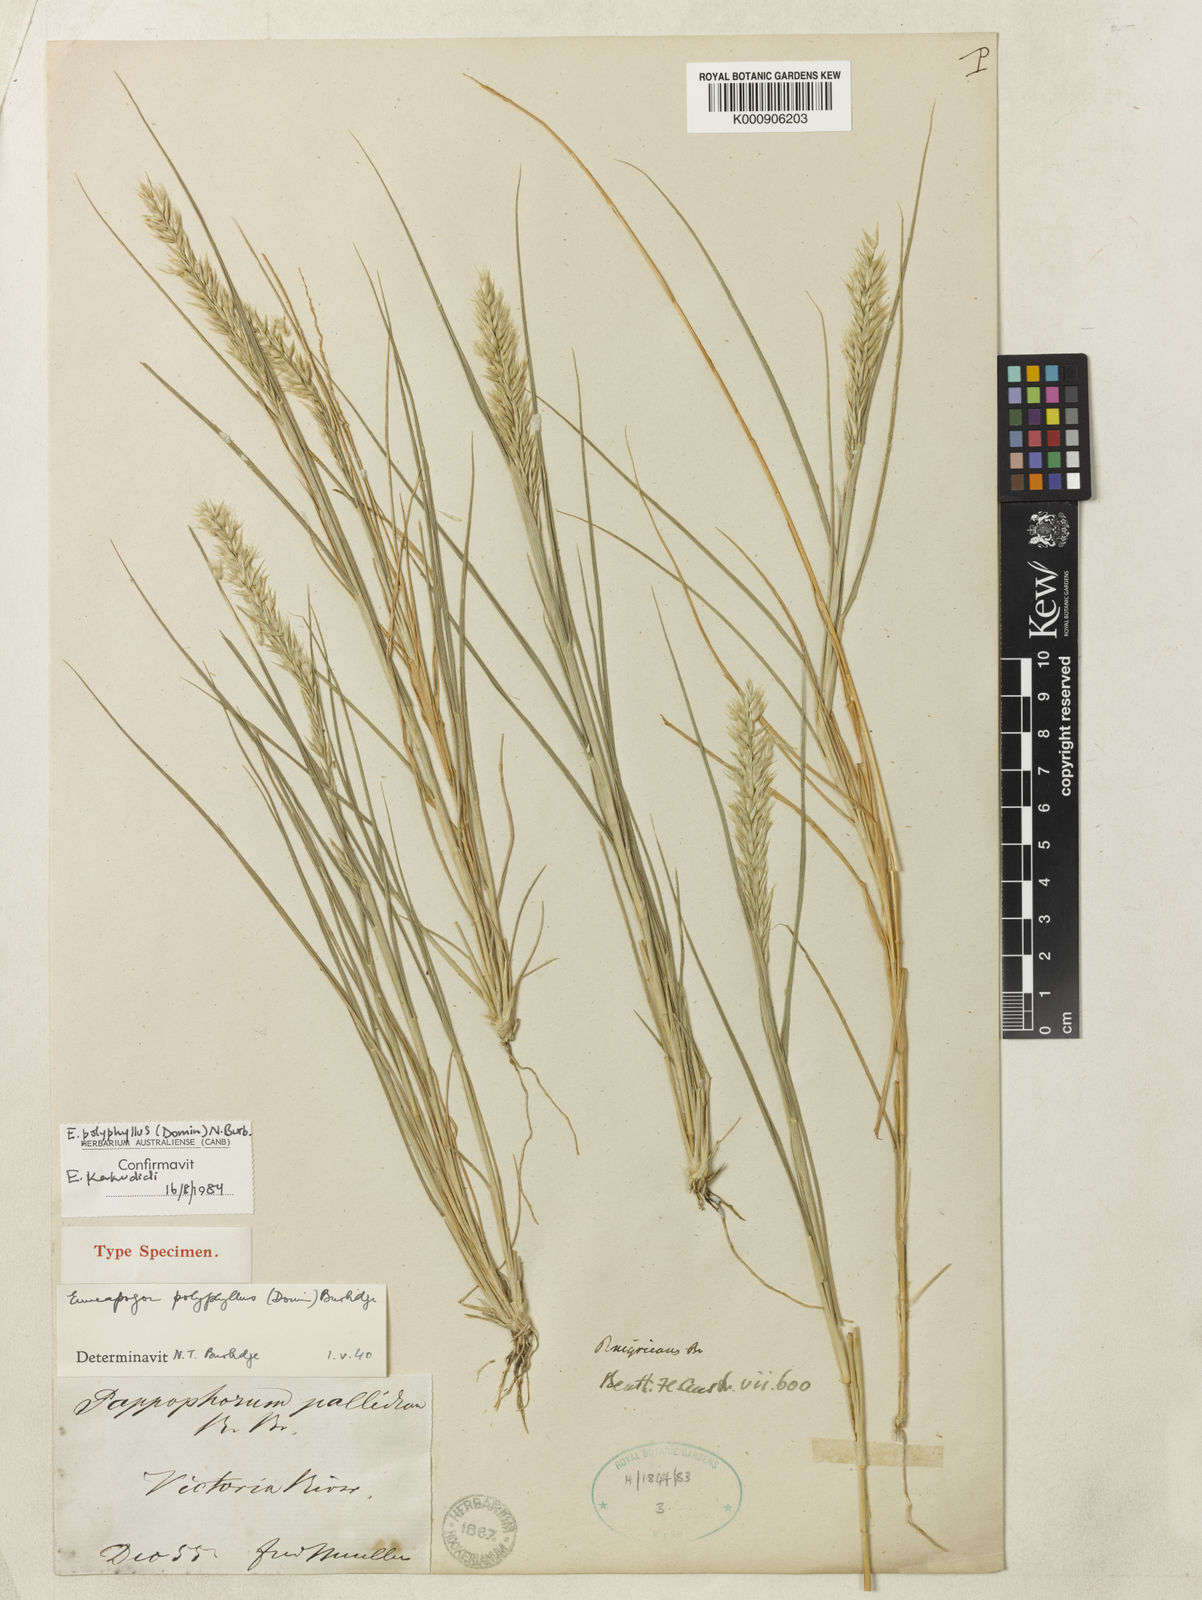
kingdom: Plantae
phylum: Tracheophyta
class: Liliopsida
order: Poales
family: Poaceae
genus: Enneapogon
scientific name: Enneapogon polyphyllus
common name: Leafy nineawn
